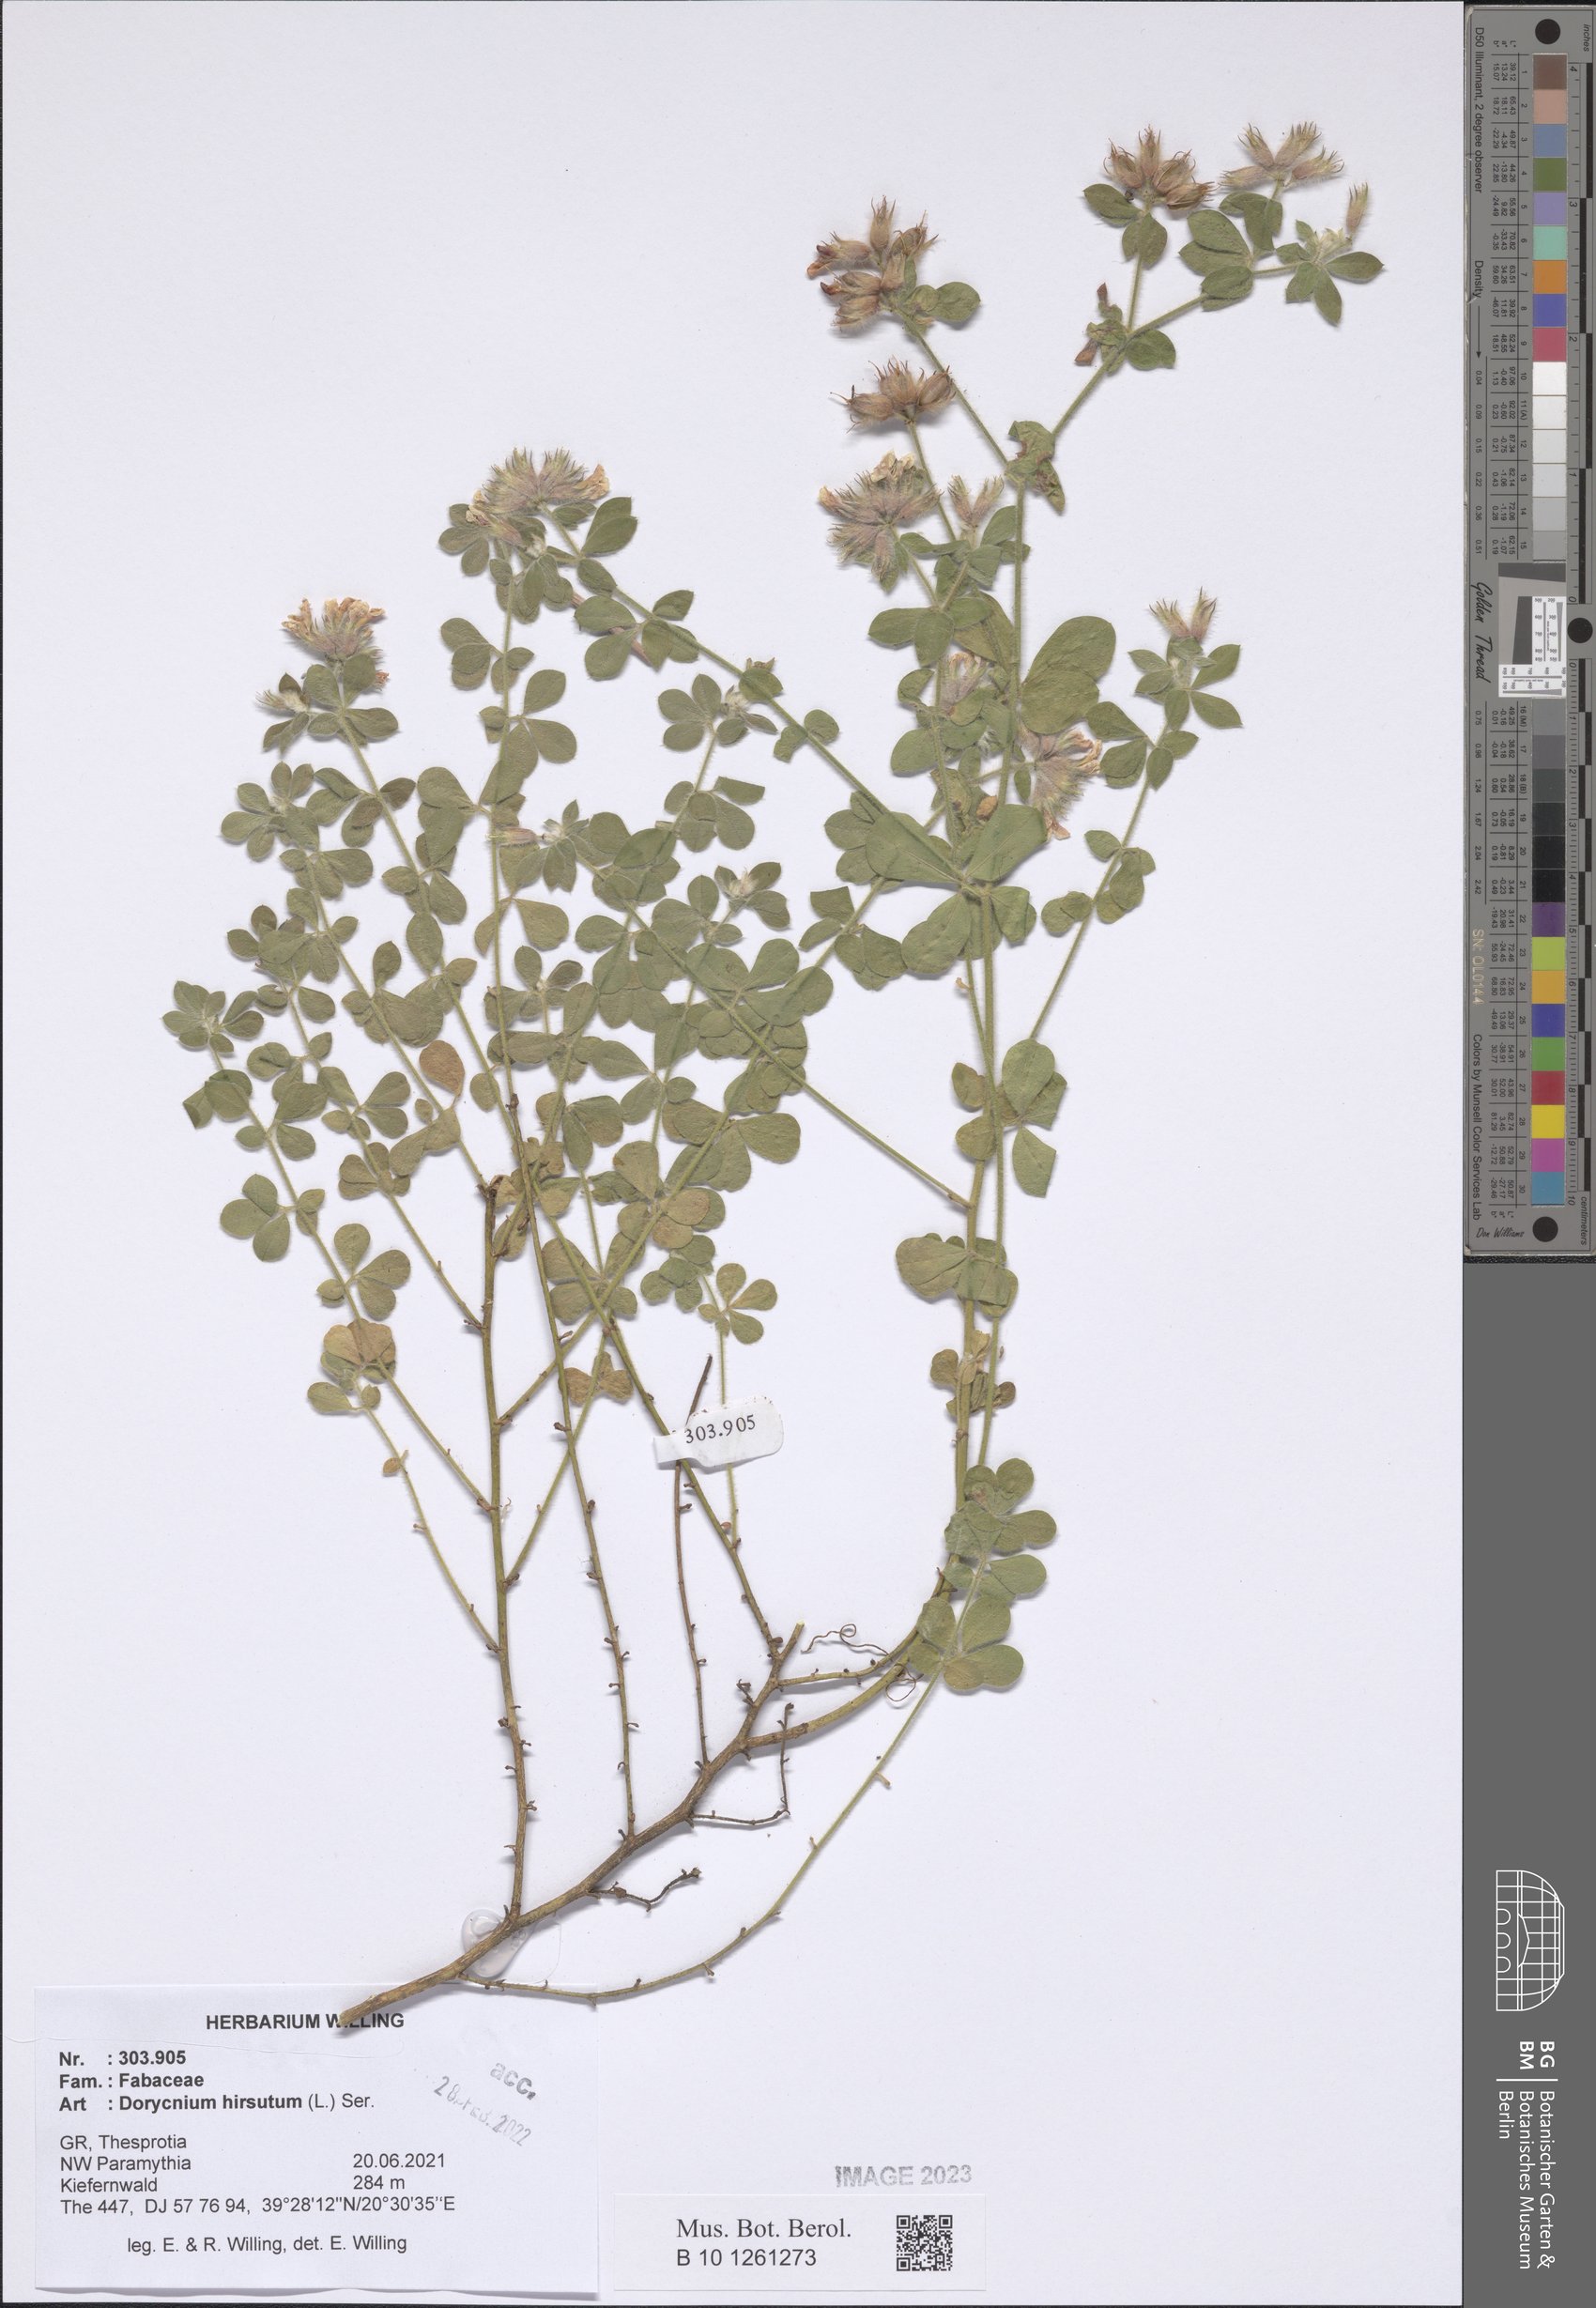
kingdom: Plantae
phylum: Tracheophyta
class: Magnoliopsida
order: Fabales
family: Fabaceae
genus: Lotus
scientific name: Lotus hirsutus
